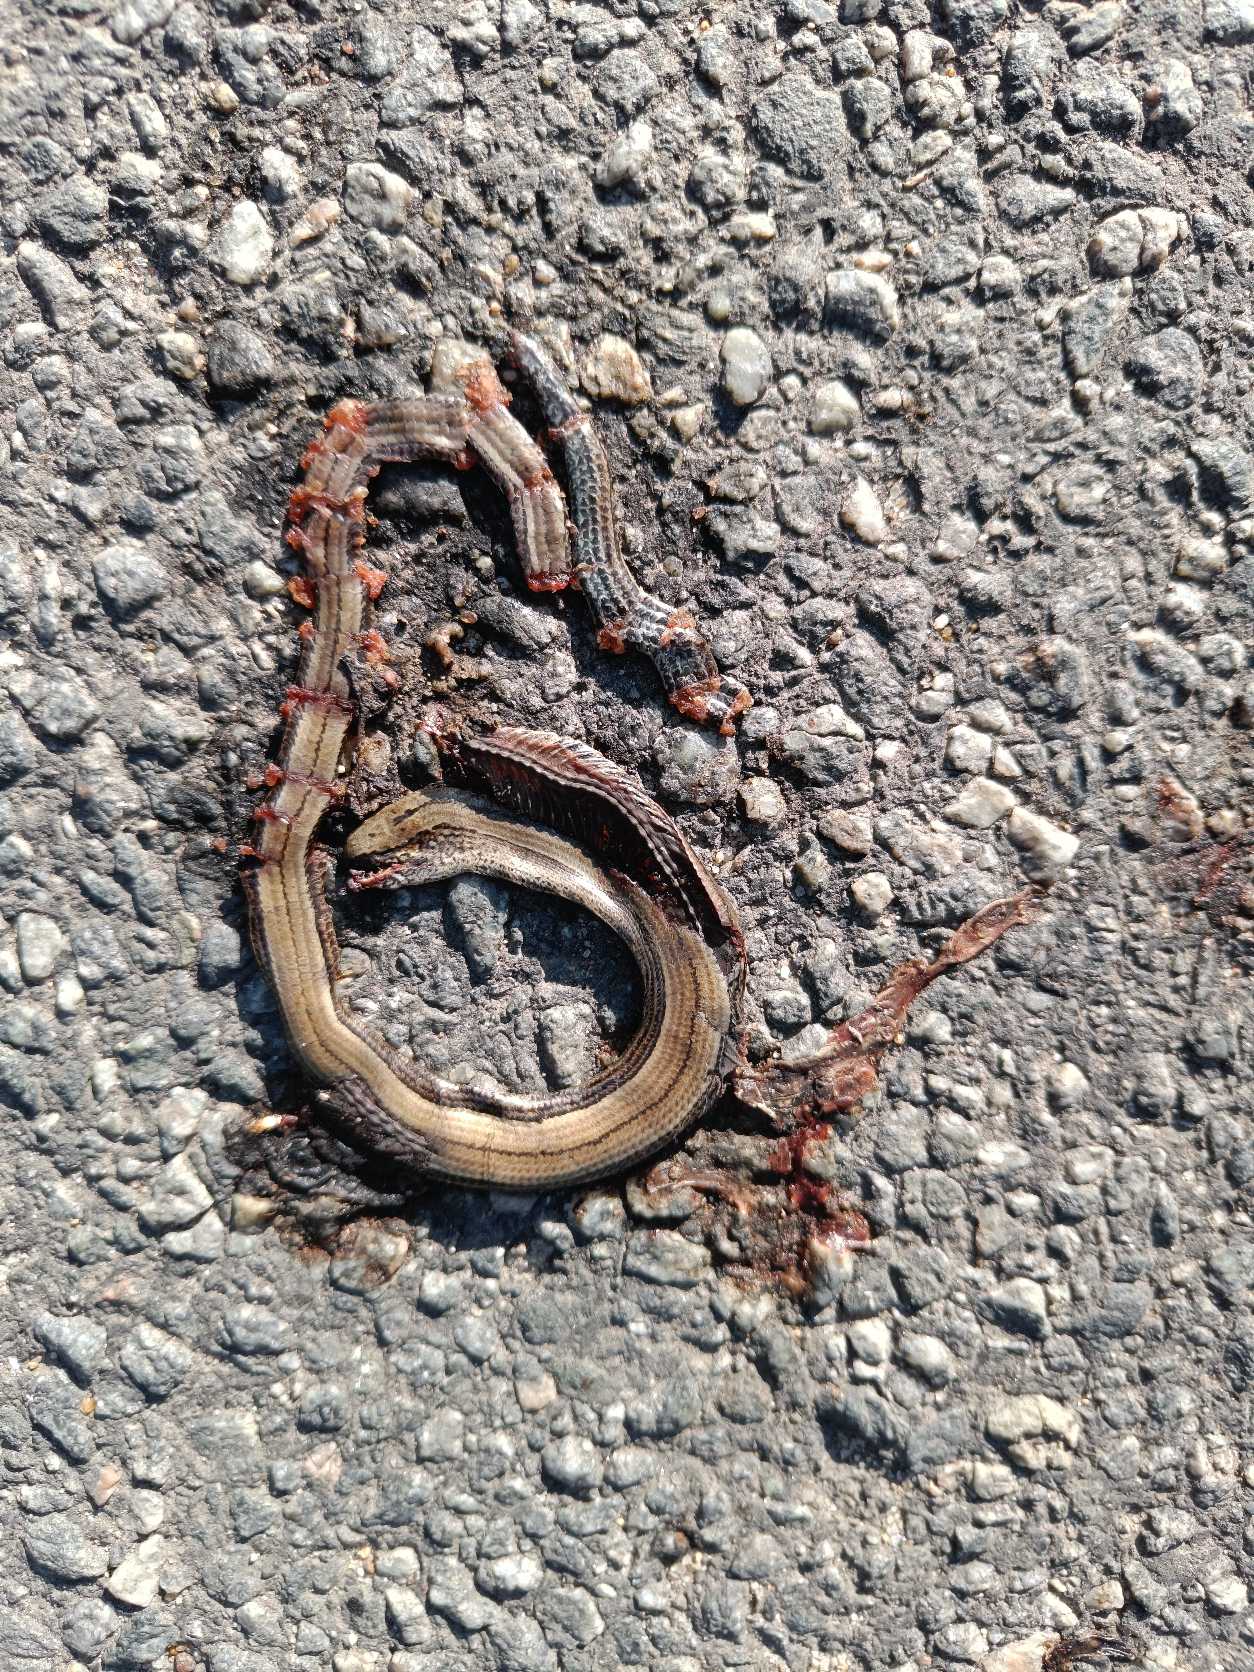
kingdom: Animalia
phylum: Chordata
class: Squamata
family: Anguidae
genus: Anguis
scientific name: Anguis fragilis
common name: Stålorm
